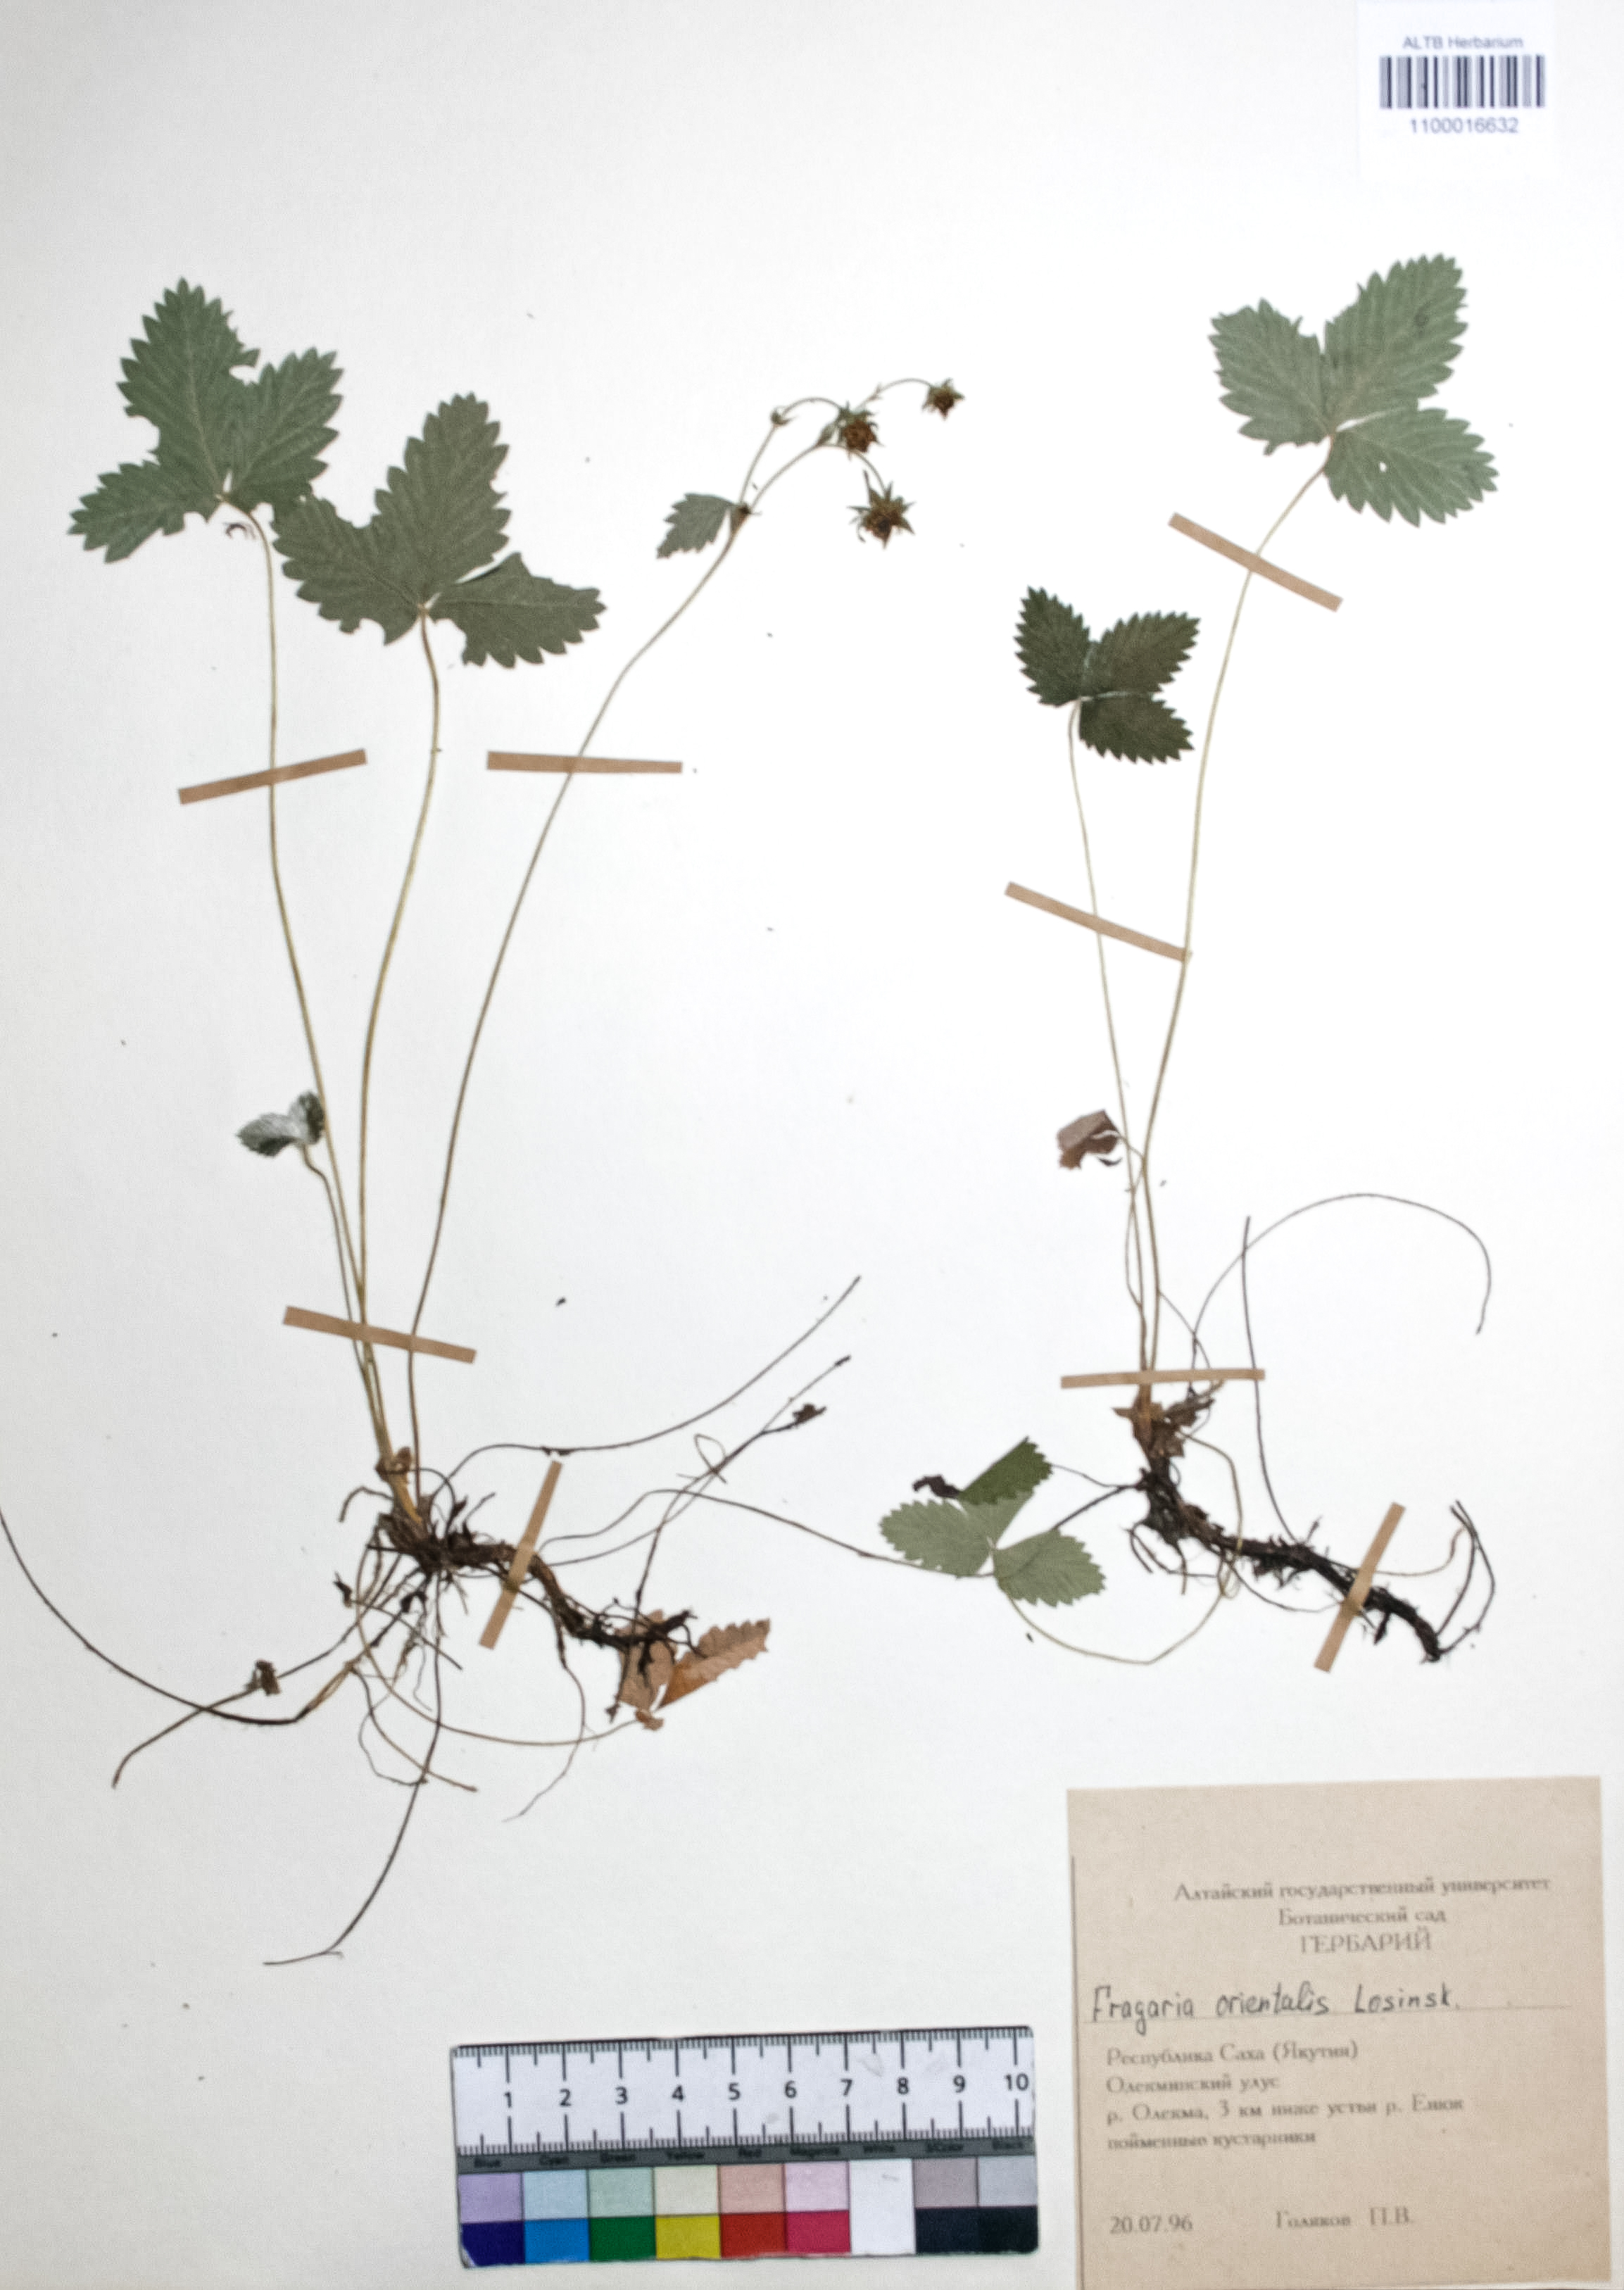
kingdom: Plantae
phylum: Tracheophyta
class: Magnoliopsida
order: Rosales
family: Rosaceae
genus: Fragaria
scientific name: Fragaria orientalis
